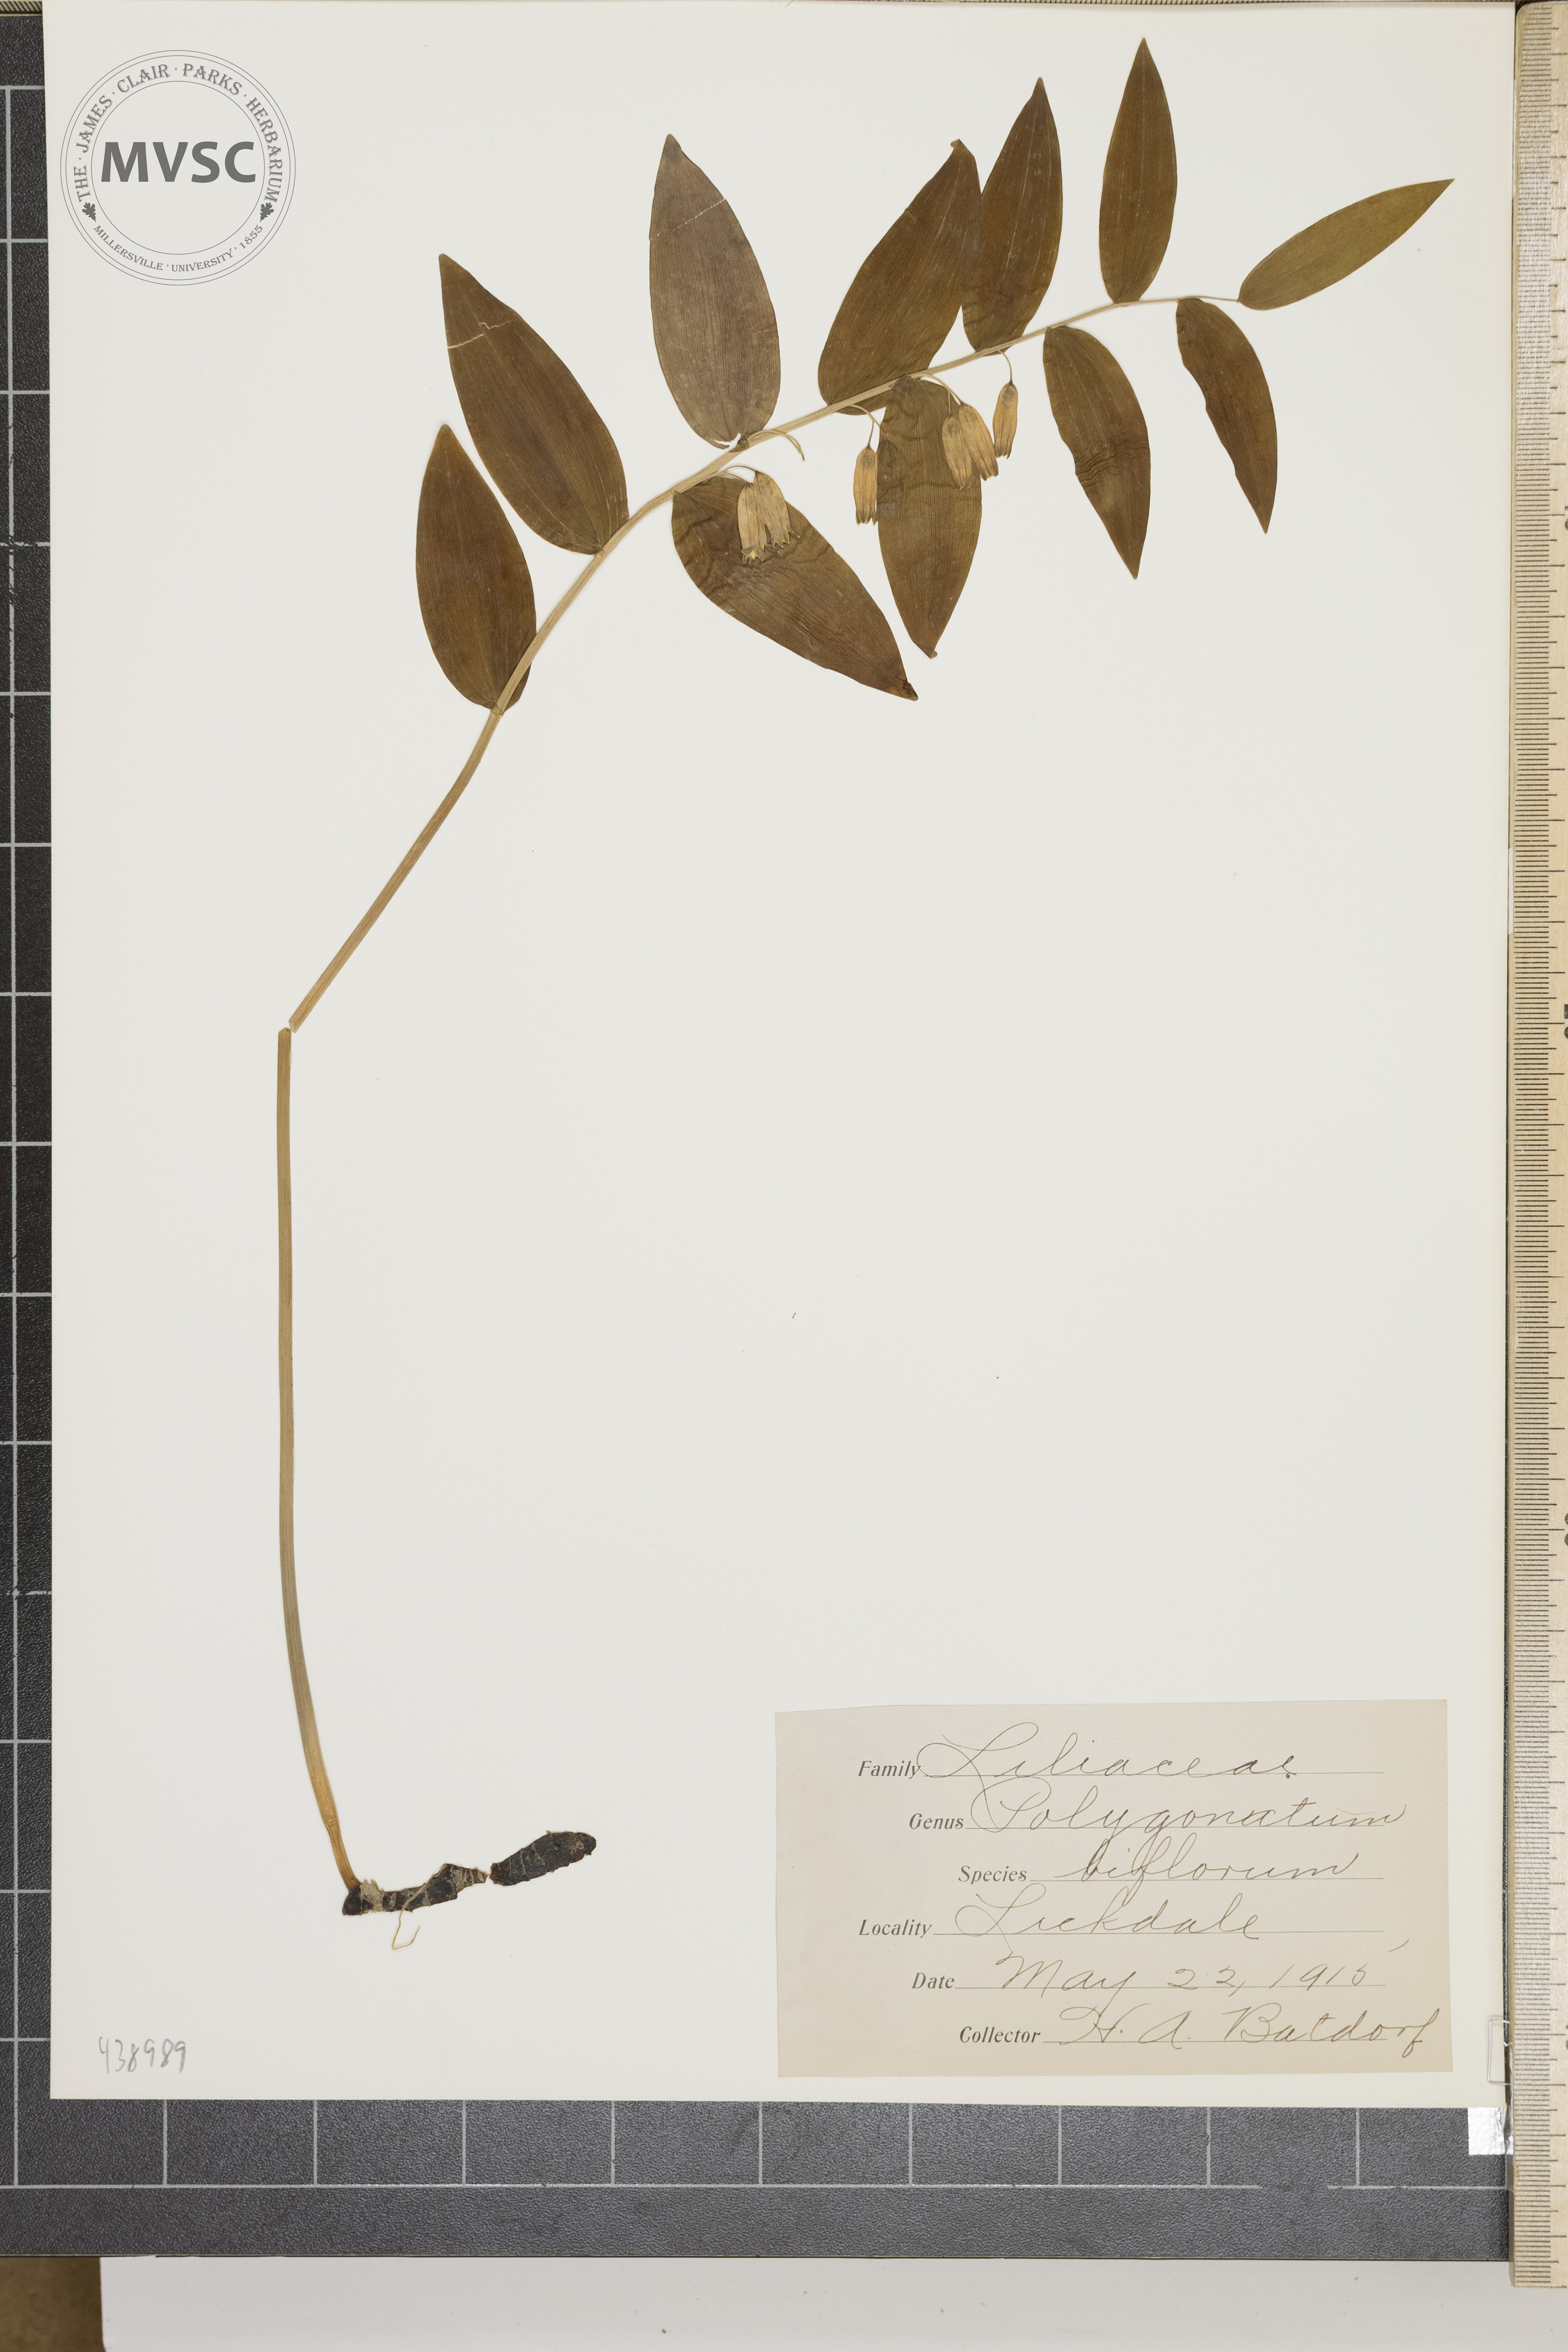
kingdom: Plantae
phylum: Tracheophyta
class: Liliopsida
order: Asparagales
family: Asparagaceae
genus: Polygonatum
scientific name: Polygonatum biflorum
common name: American solomon's-seal
